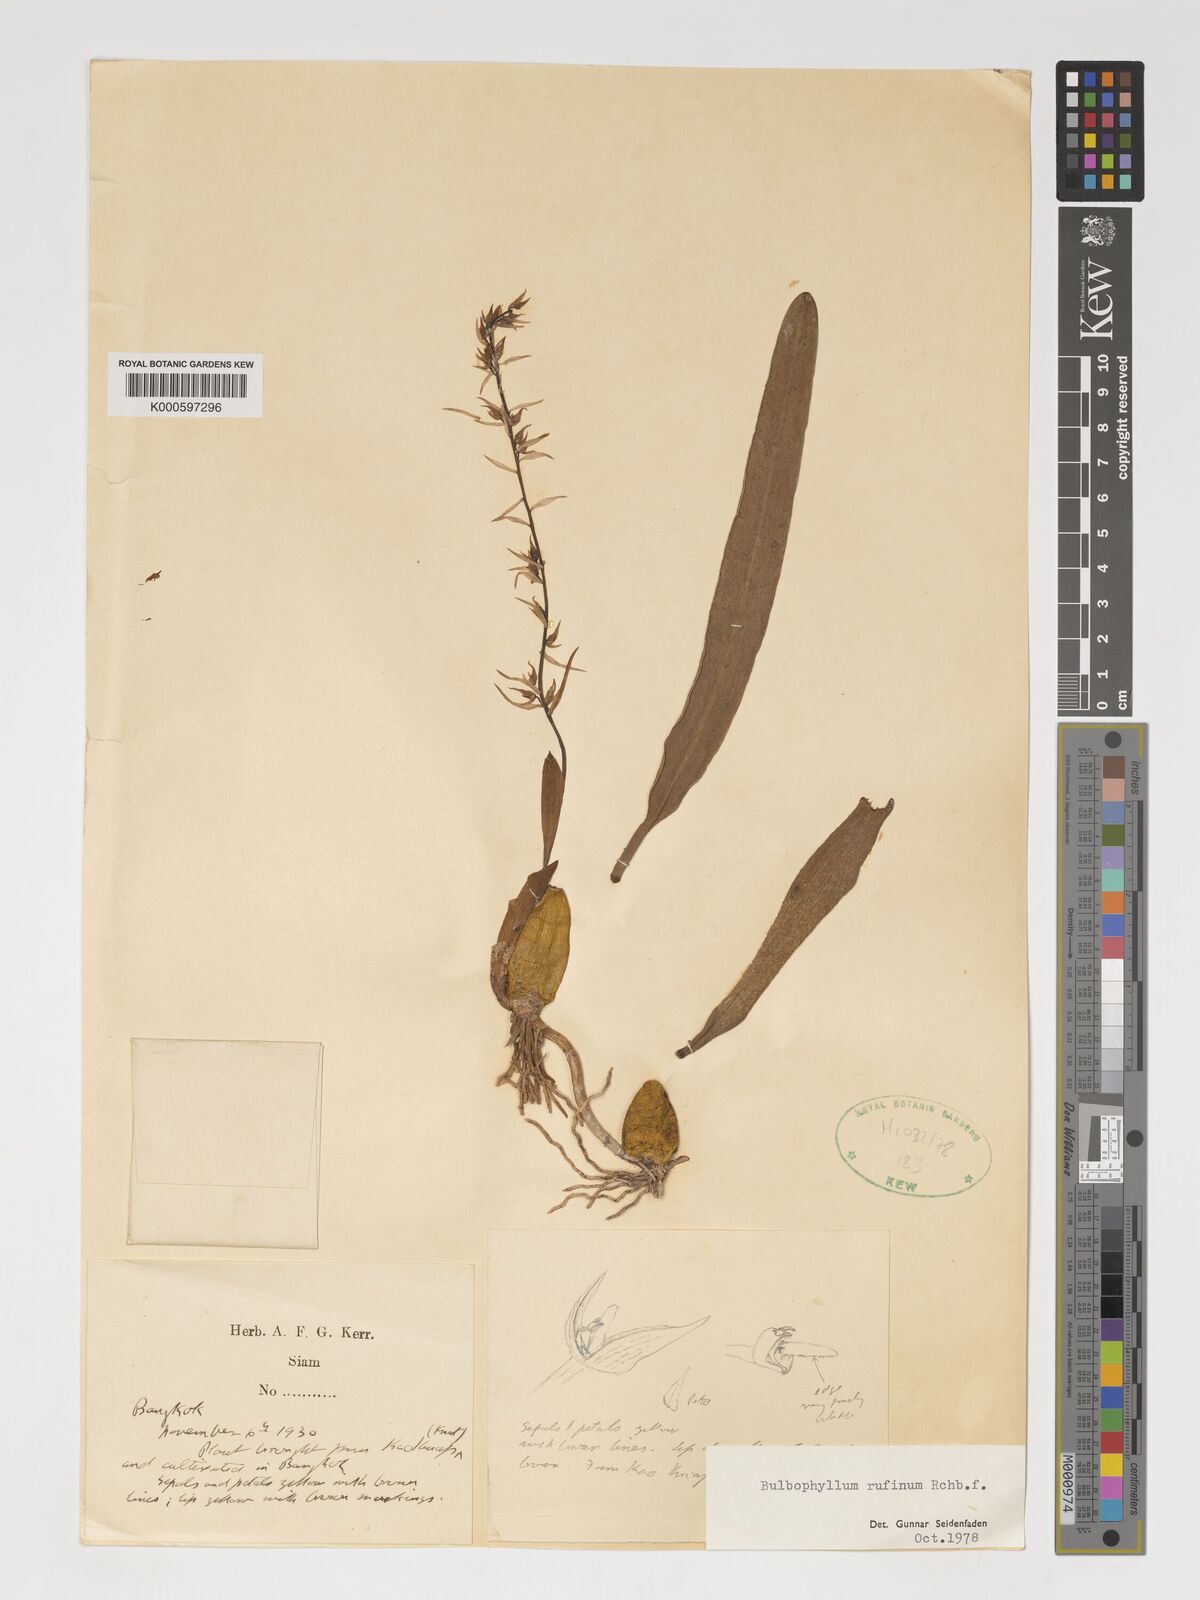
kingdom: Plantae
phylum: Tracheophyta
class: Liliopsida
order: Asparagales
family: Orchidaceae
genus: Bulbophyllum
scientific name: Bulbophyllum rufinum
